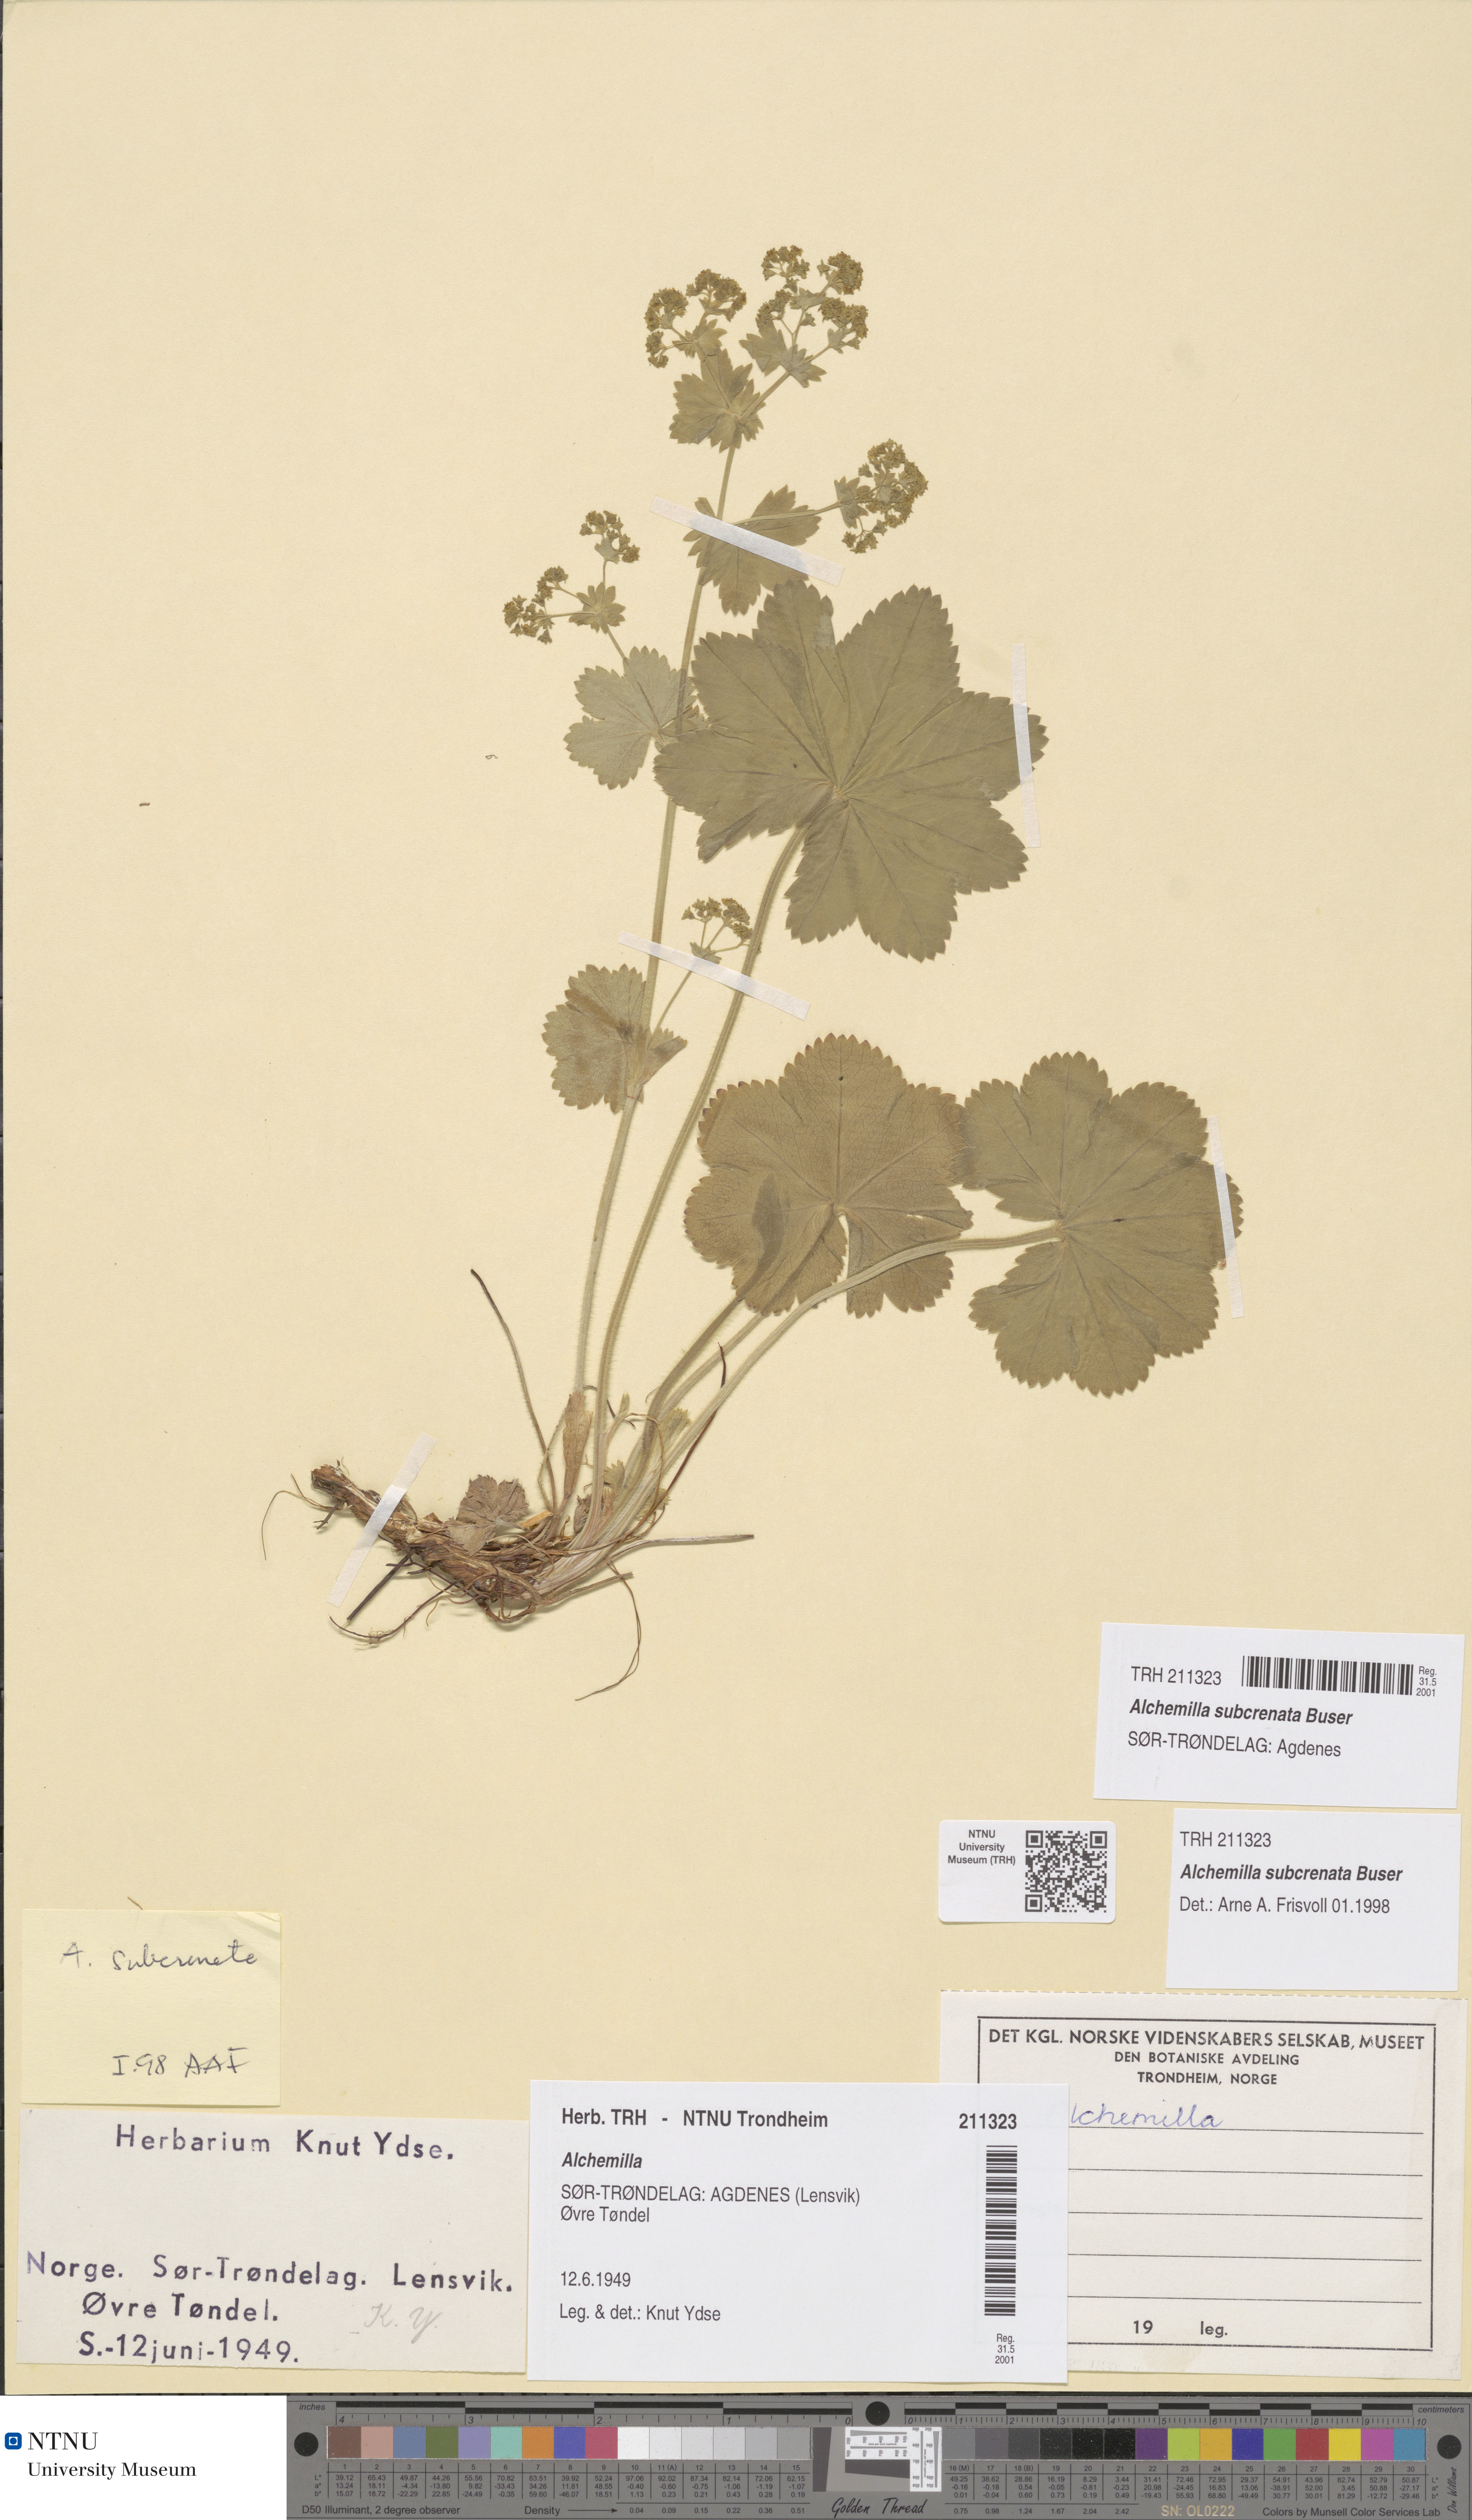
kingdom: Plantae
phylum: Tracheophyta
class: Magnoliopsida
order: Rosales
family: Rosaceae
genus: Alchemilla
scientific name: Alchemilla subcrenata
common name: Broadtooth lady's mantle
